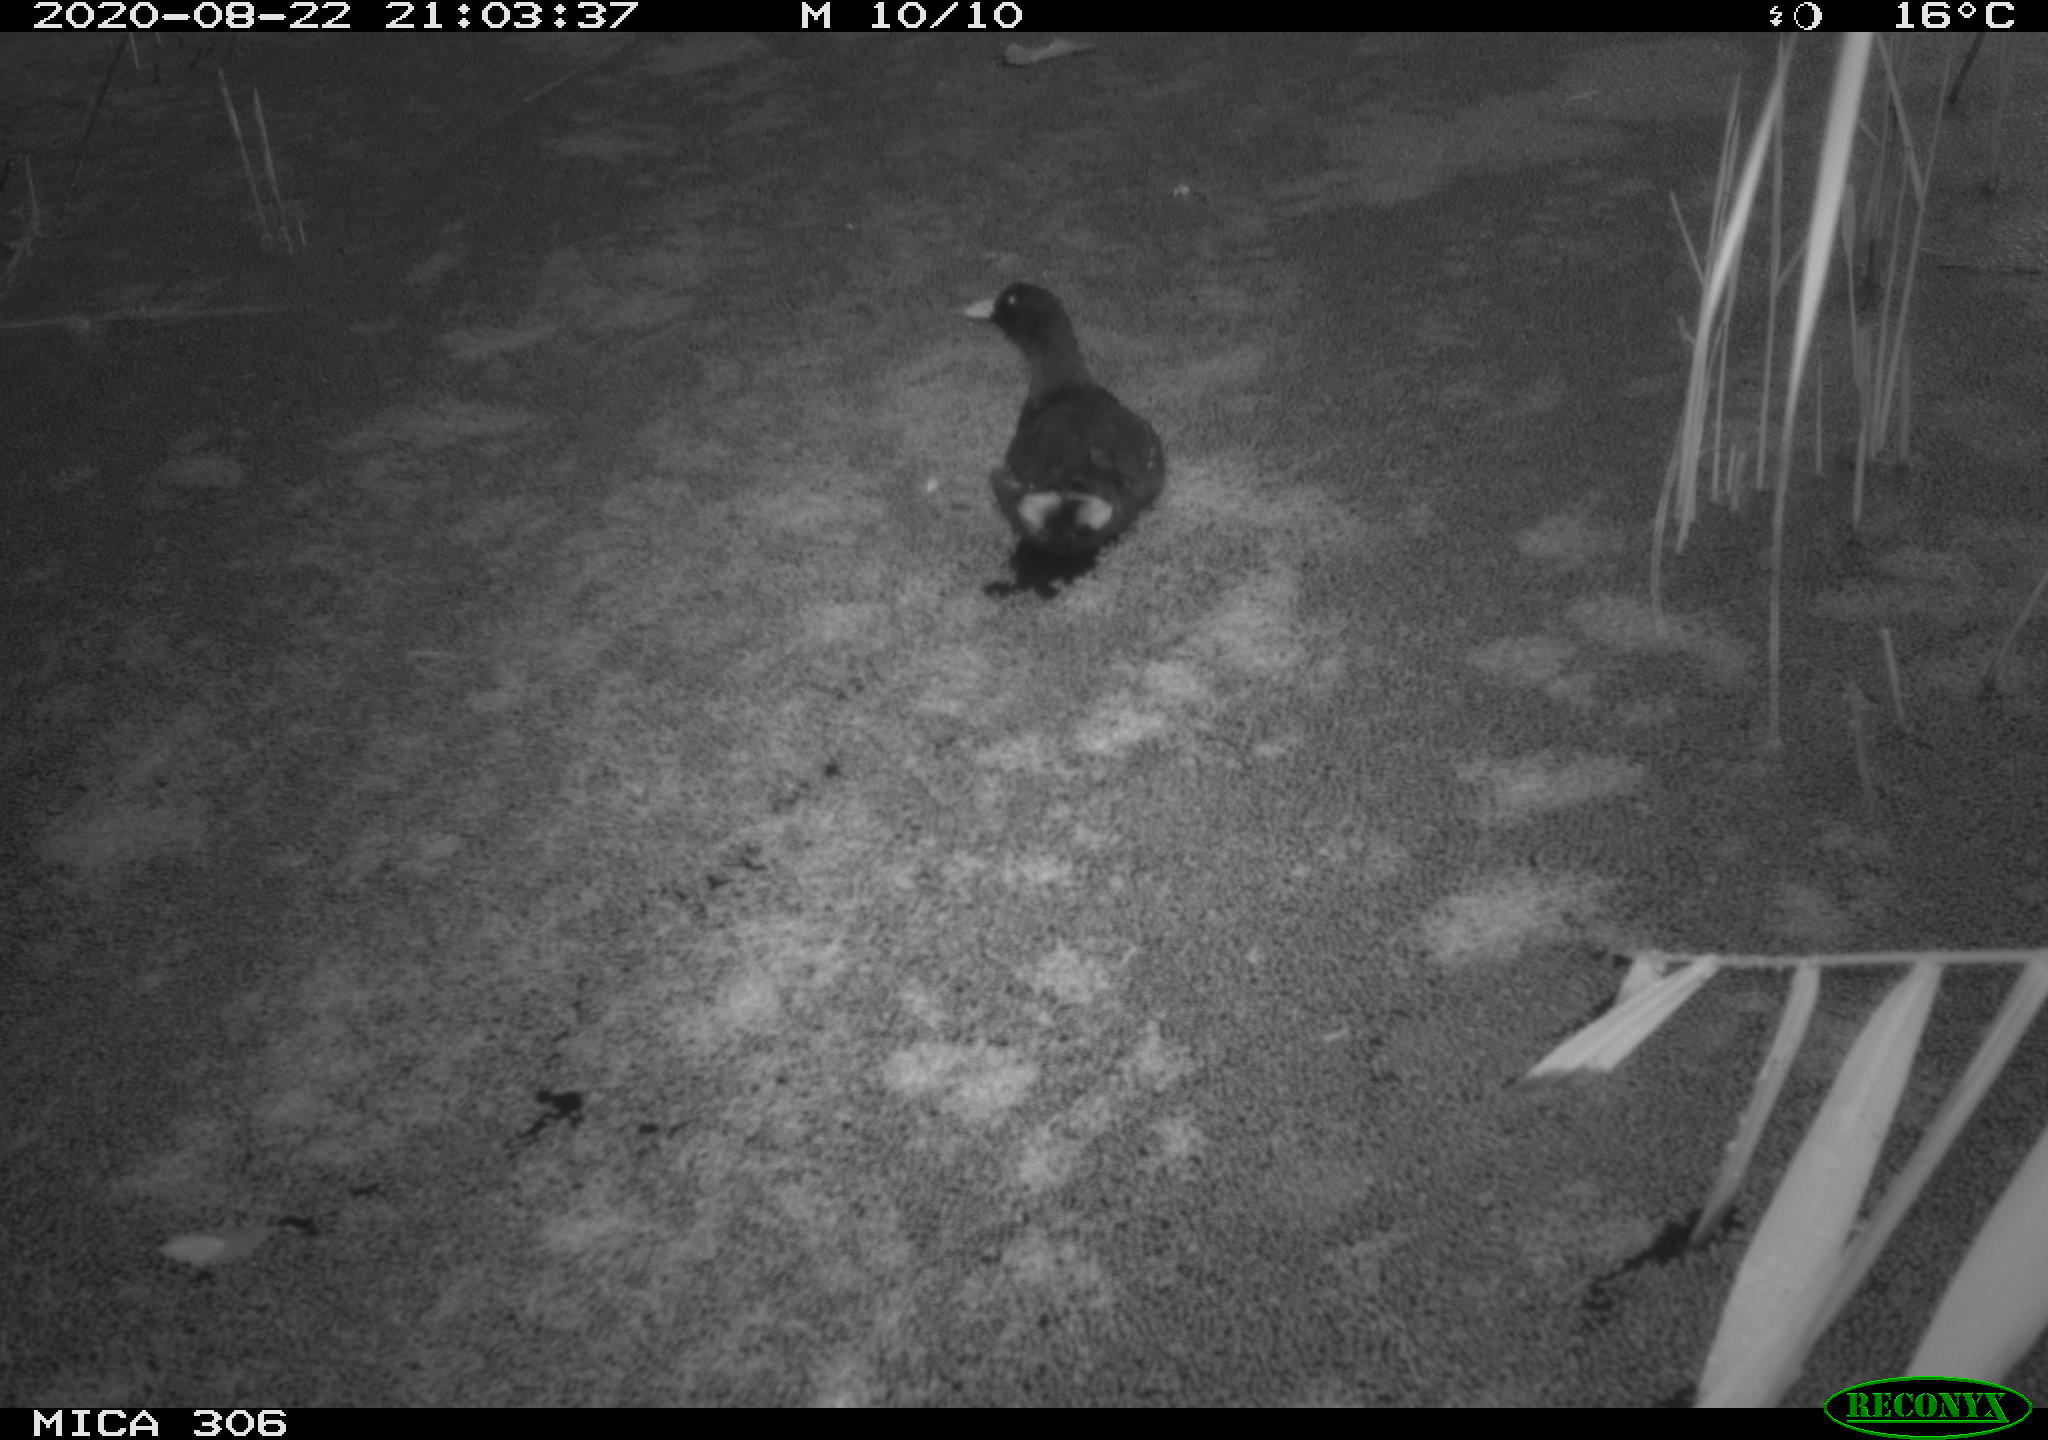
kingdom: Animalia
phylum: Chordata
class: Aves
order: Gruiformes
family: Rallidae
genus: Fulica
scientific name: Fulica atra
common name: Eurasian coot
